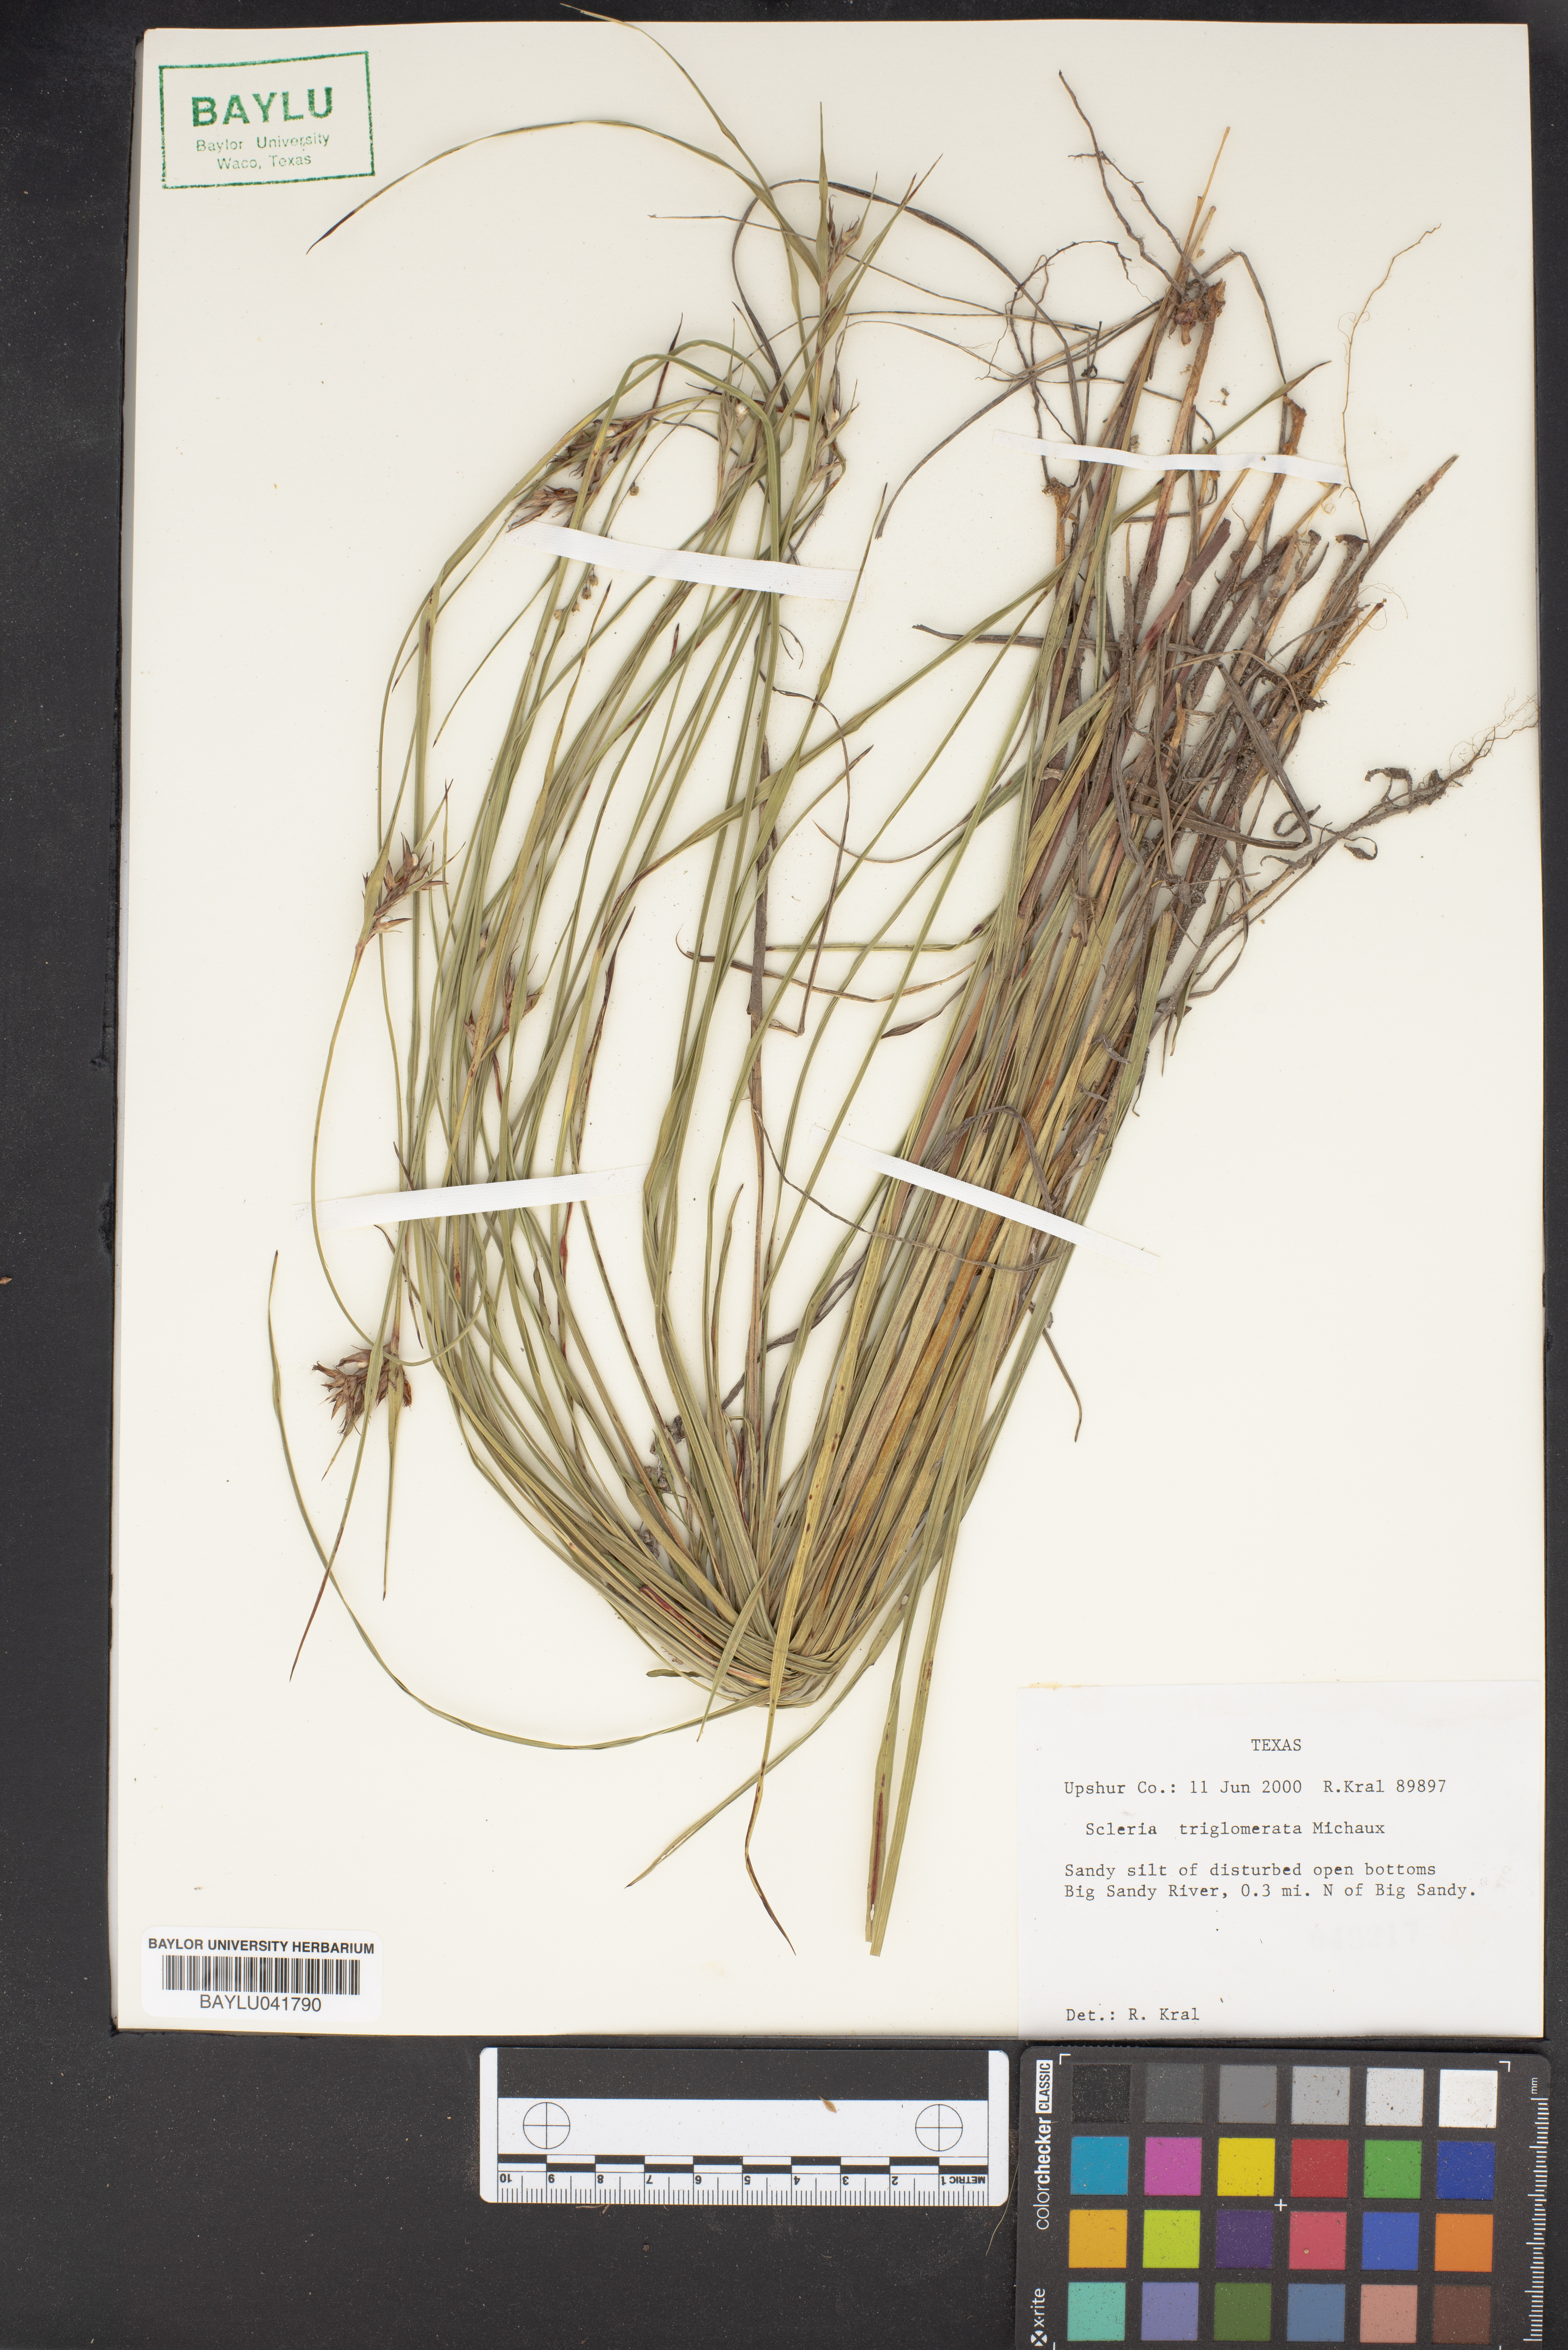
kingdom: Plantae
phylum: Tracheophyta
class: Liliopsida
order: Poales
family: Cyperaceae
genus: Scleria
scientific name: Scleria triglomerata
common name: Whip nutrush
